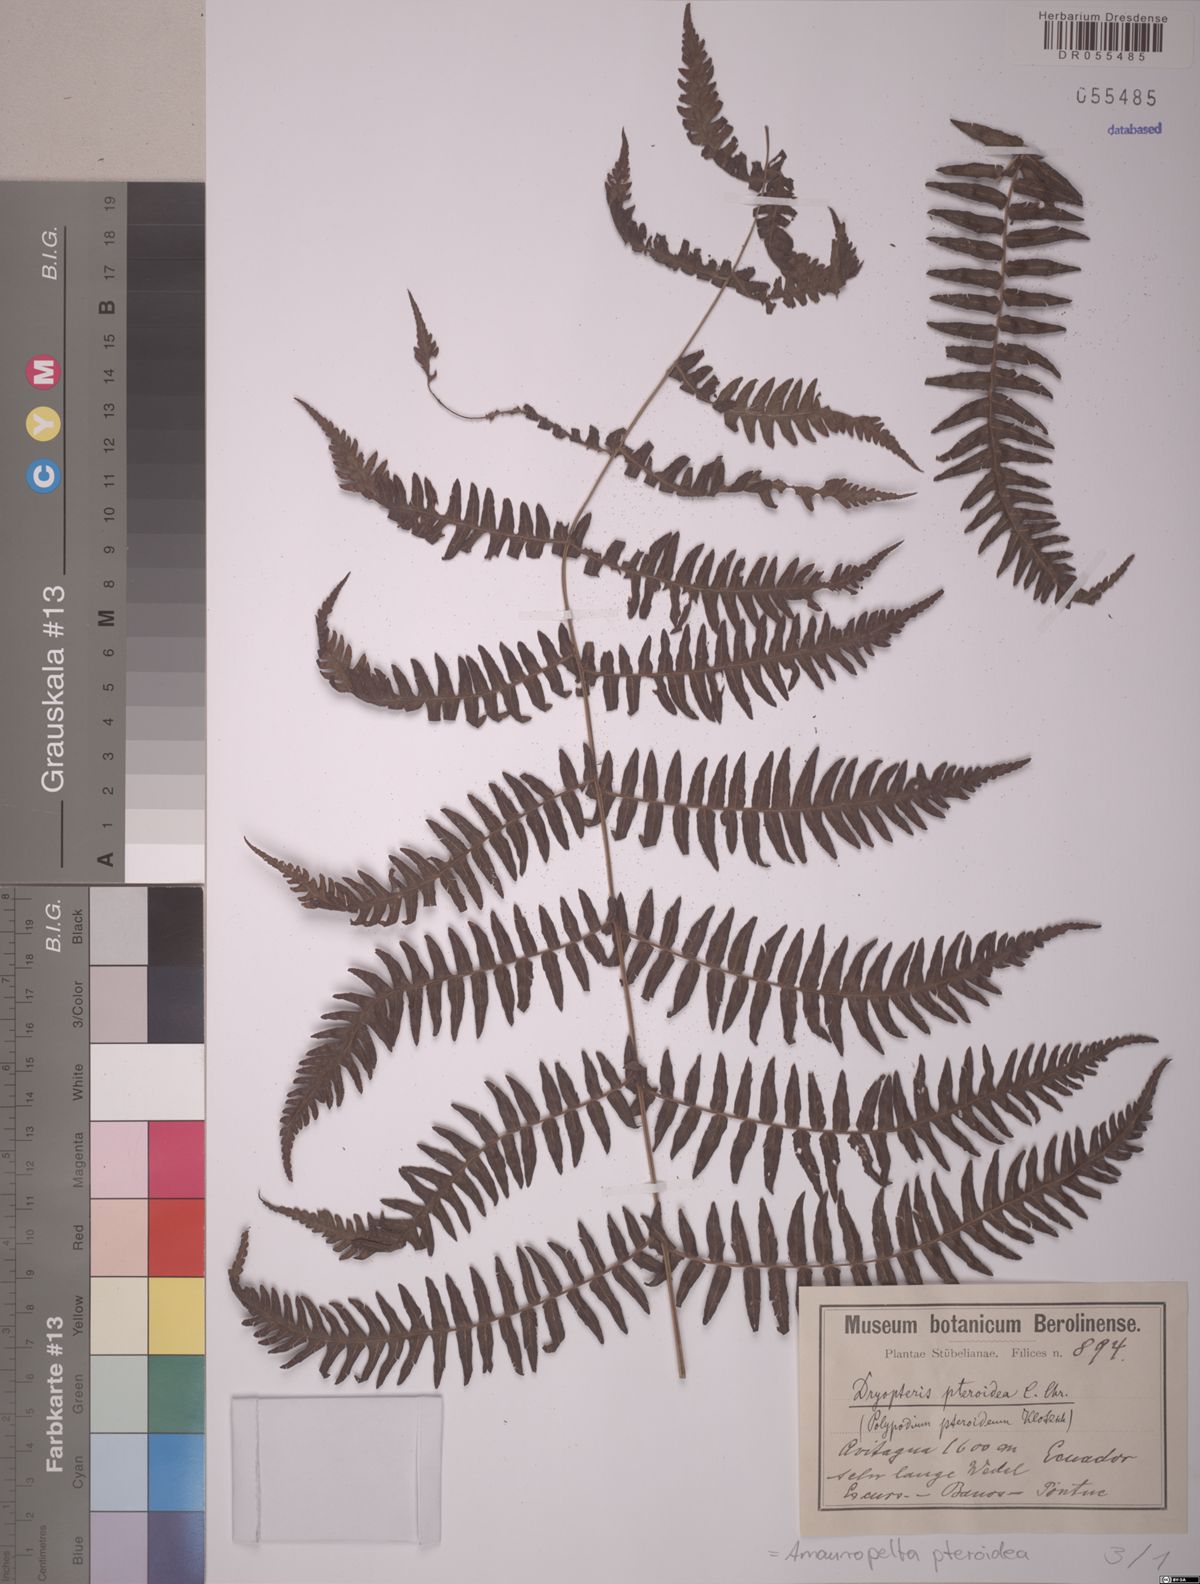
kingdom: Plantae
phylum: Tracheophyta
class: Polypodiopsida
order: Polypodiales
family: Thelypteridaceae
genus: Amauropelta
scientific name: Amauropelta pteroidea
